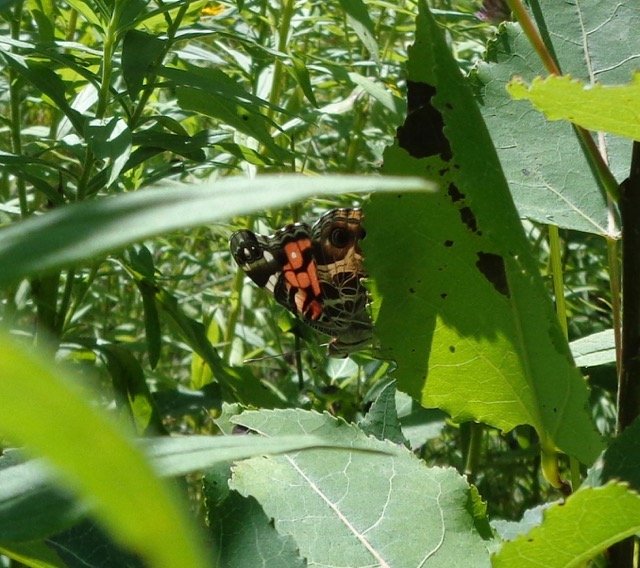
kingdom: Animalia
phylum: Arthropoda
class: Insecta
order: Lepidoptera
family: Nymphalidae
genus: Vanessa
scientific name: Vanessa virginiensis
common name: American Lady
